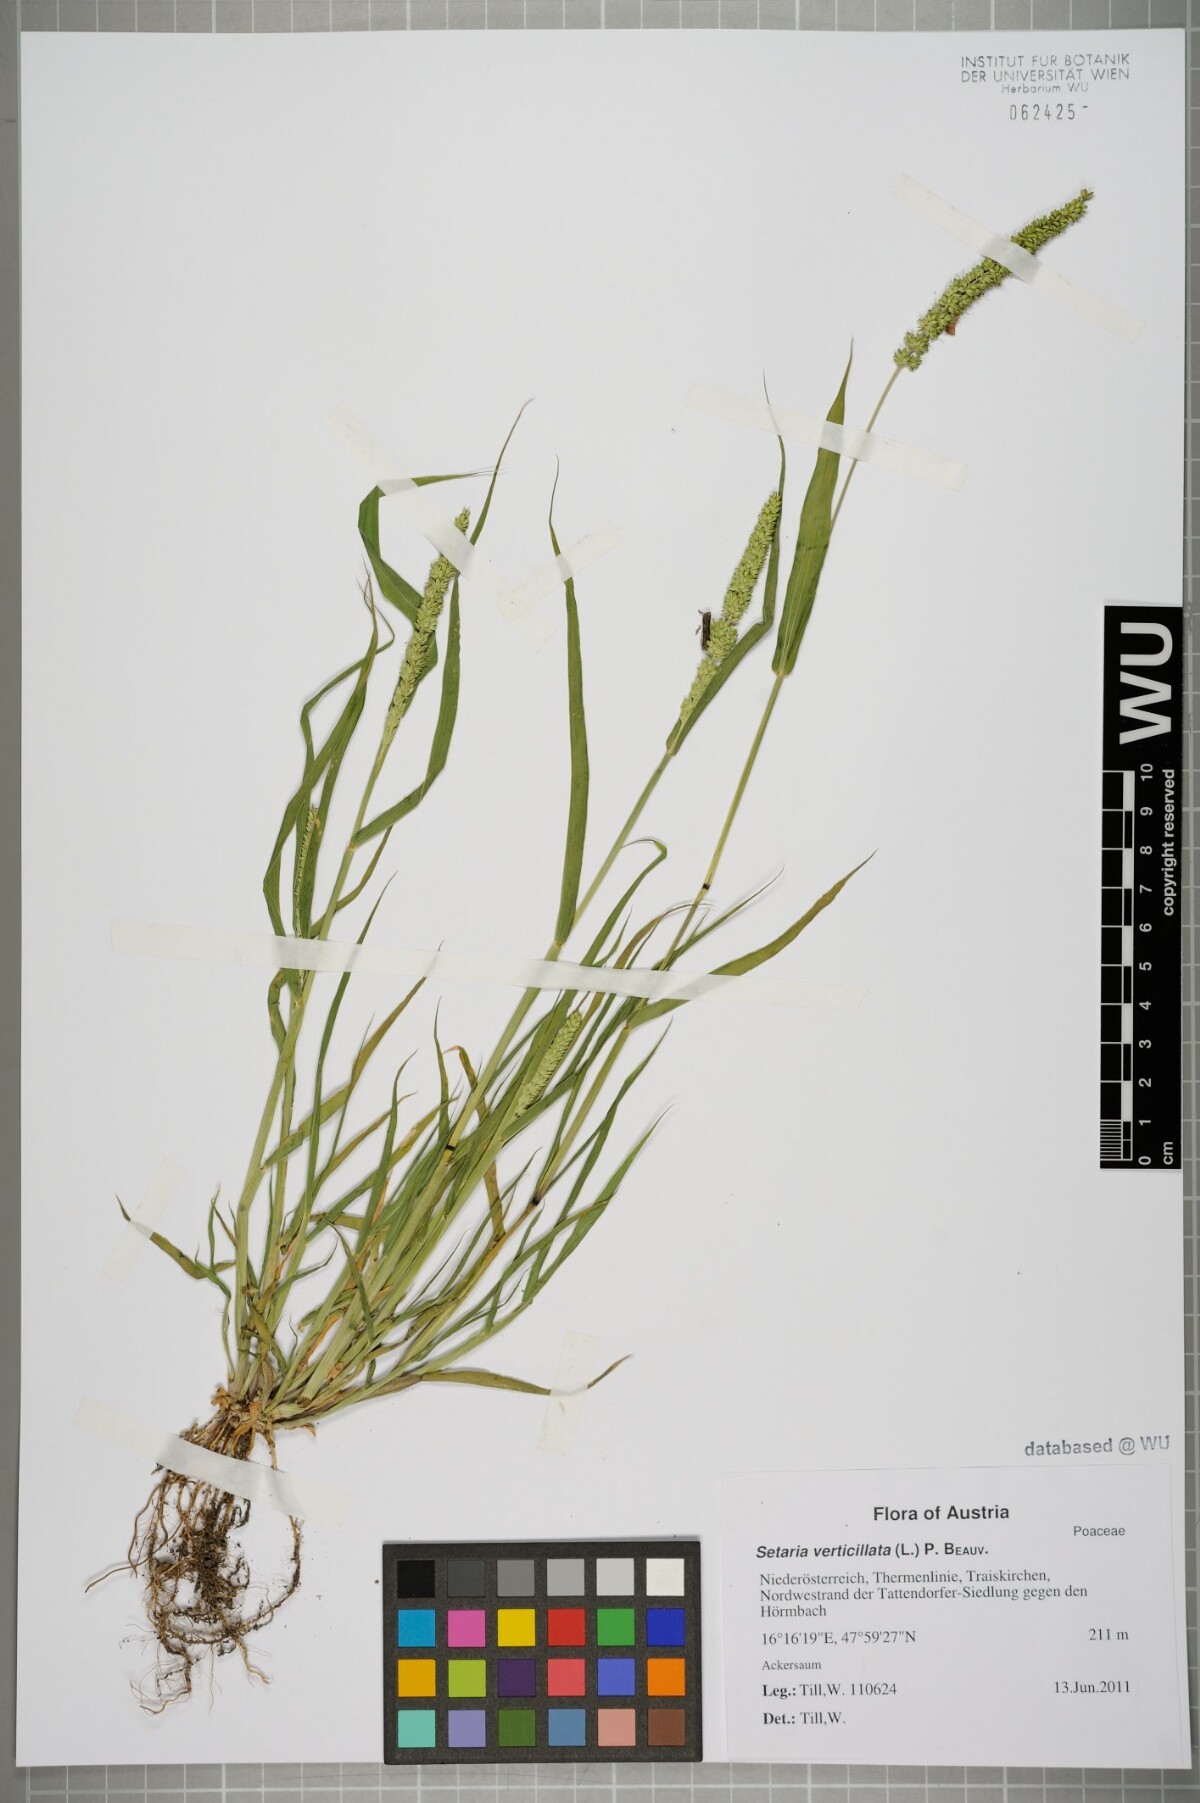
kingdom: Plantae
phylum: Tracheophyta
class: Liliopsida
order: Poales
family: Poaceae
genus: Setaria
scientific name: Setaria verticillata
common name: Hooked bristlegrass
